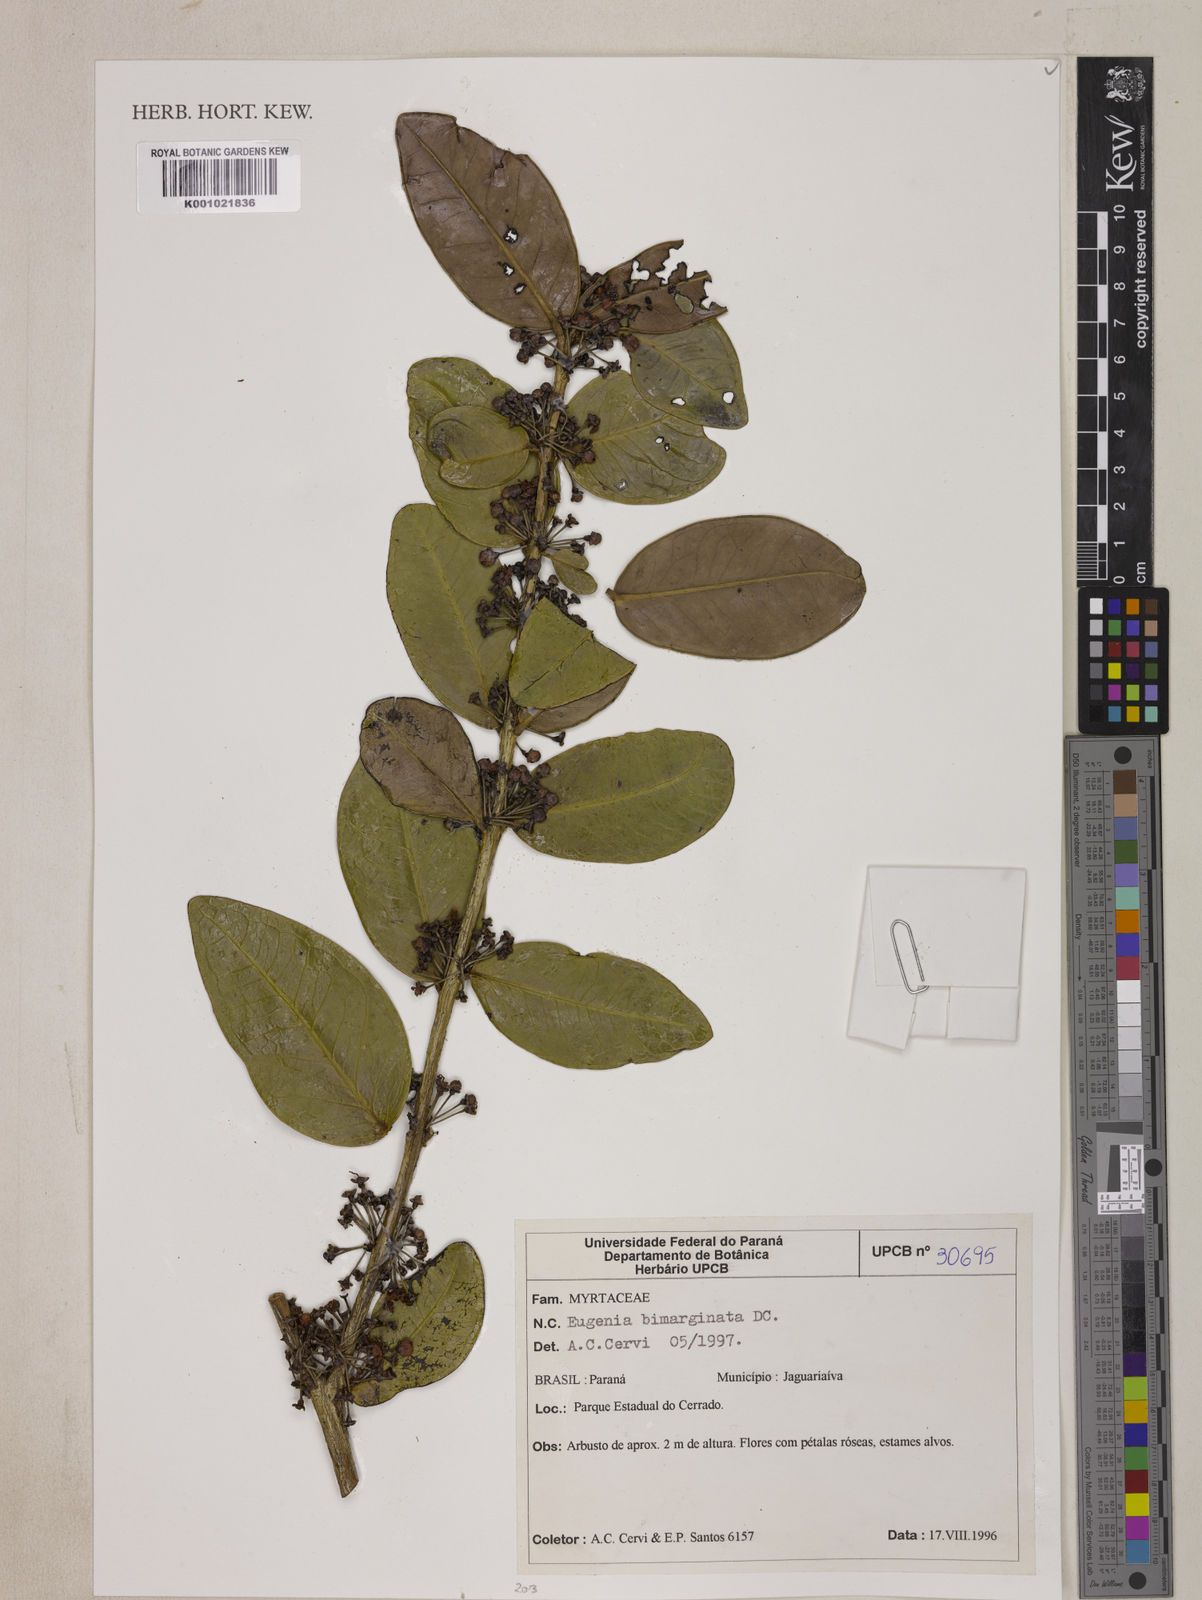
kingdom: Plantae
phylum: Tracheophyta
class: Magnoliopsida
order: Myrtales
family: Myrtaceae
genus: Eugenia
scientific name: Eugenia bimarginata
